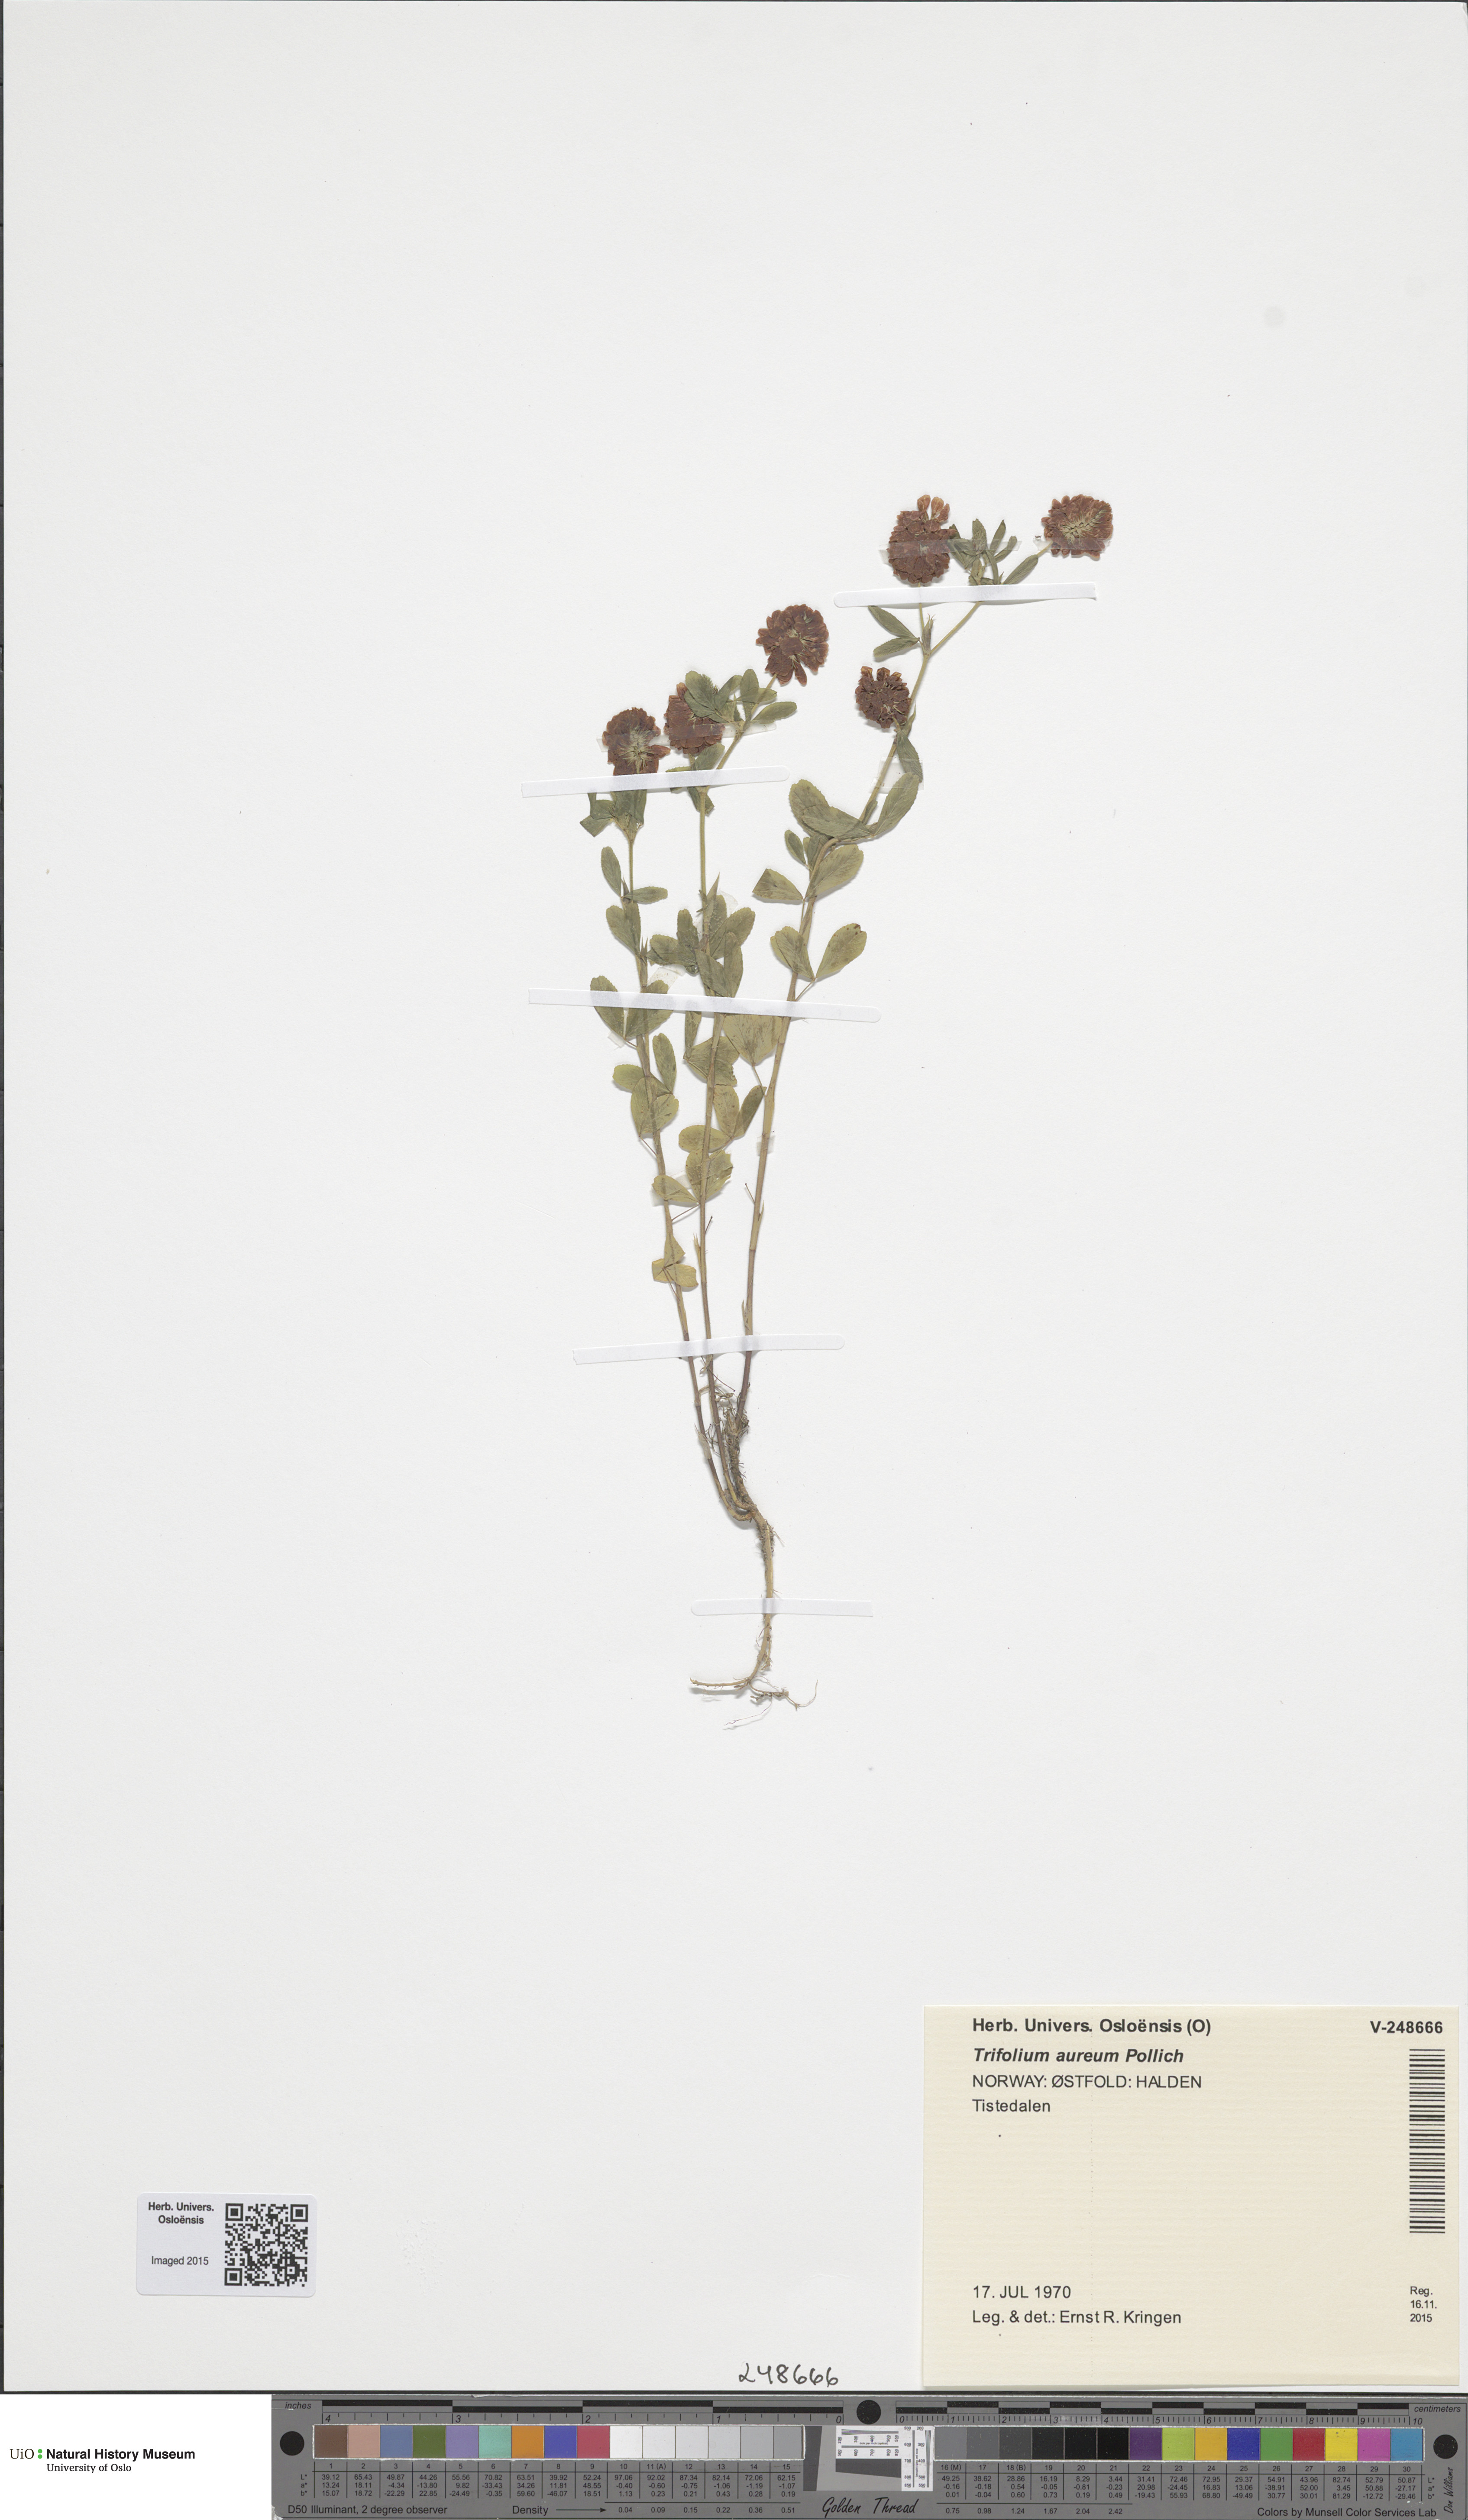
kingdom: Plantae
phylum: Tracheophyta
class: Magnoliopsida
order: Fabales
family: Fabaceae
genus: Trifolium
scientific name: Trifolium aureum
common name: Golden clover
